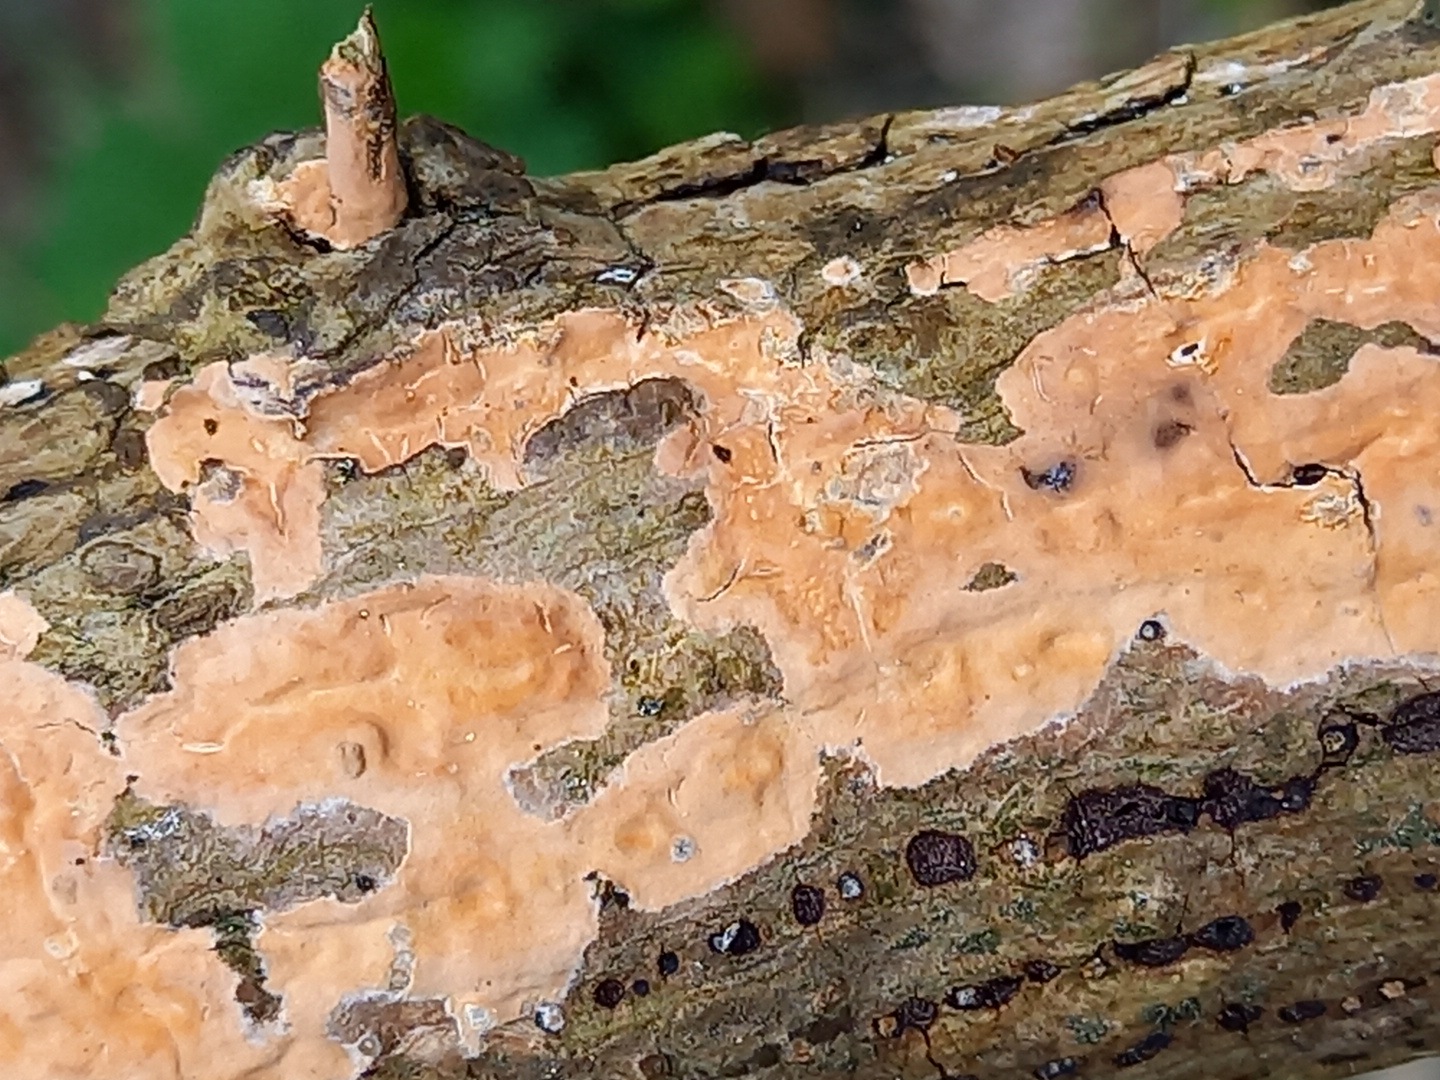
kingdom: Fungi
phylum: Basidiomycota
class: Agaricomycetes
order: Russulales
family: Peniophoraceae
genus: Peniophora
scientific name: Peniophora incarnata
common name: laksefarvet voksskind
